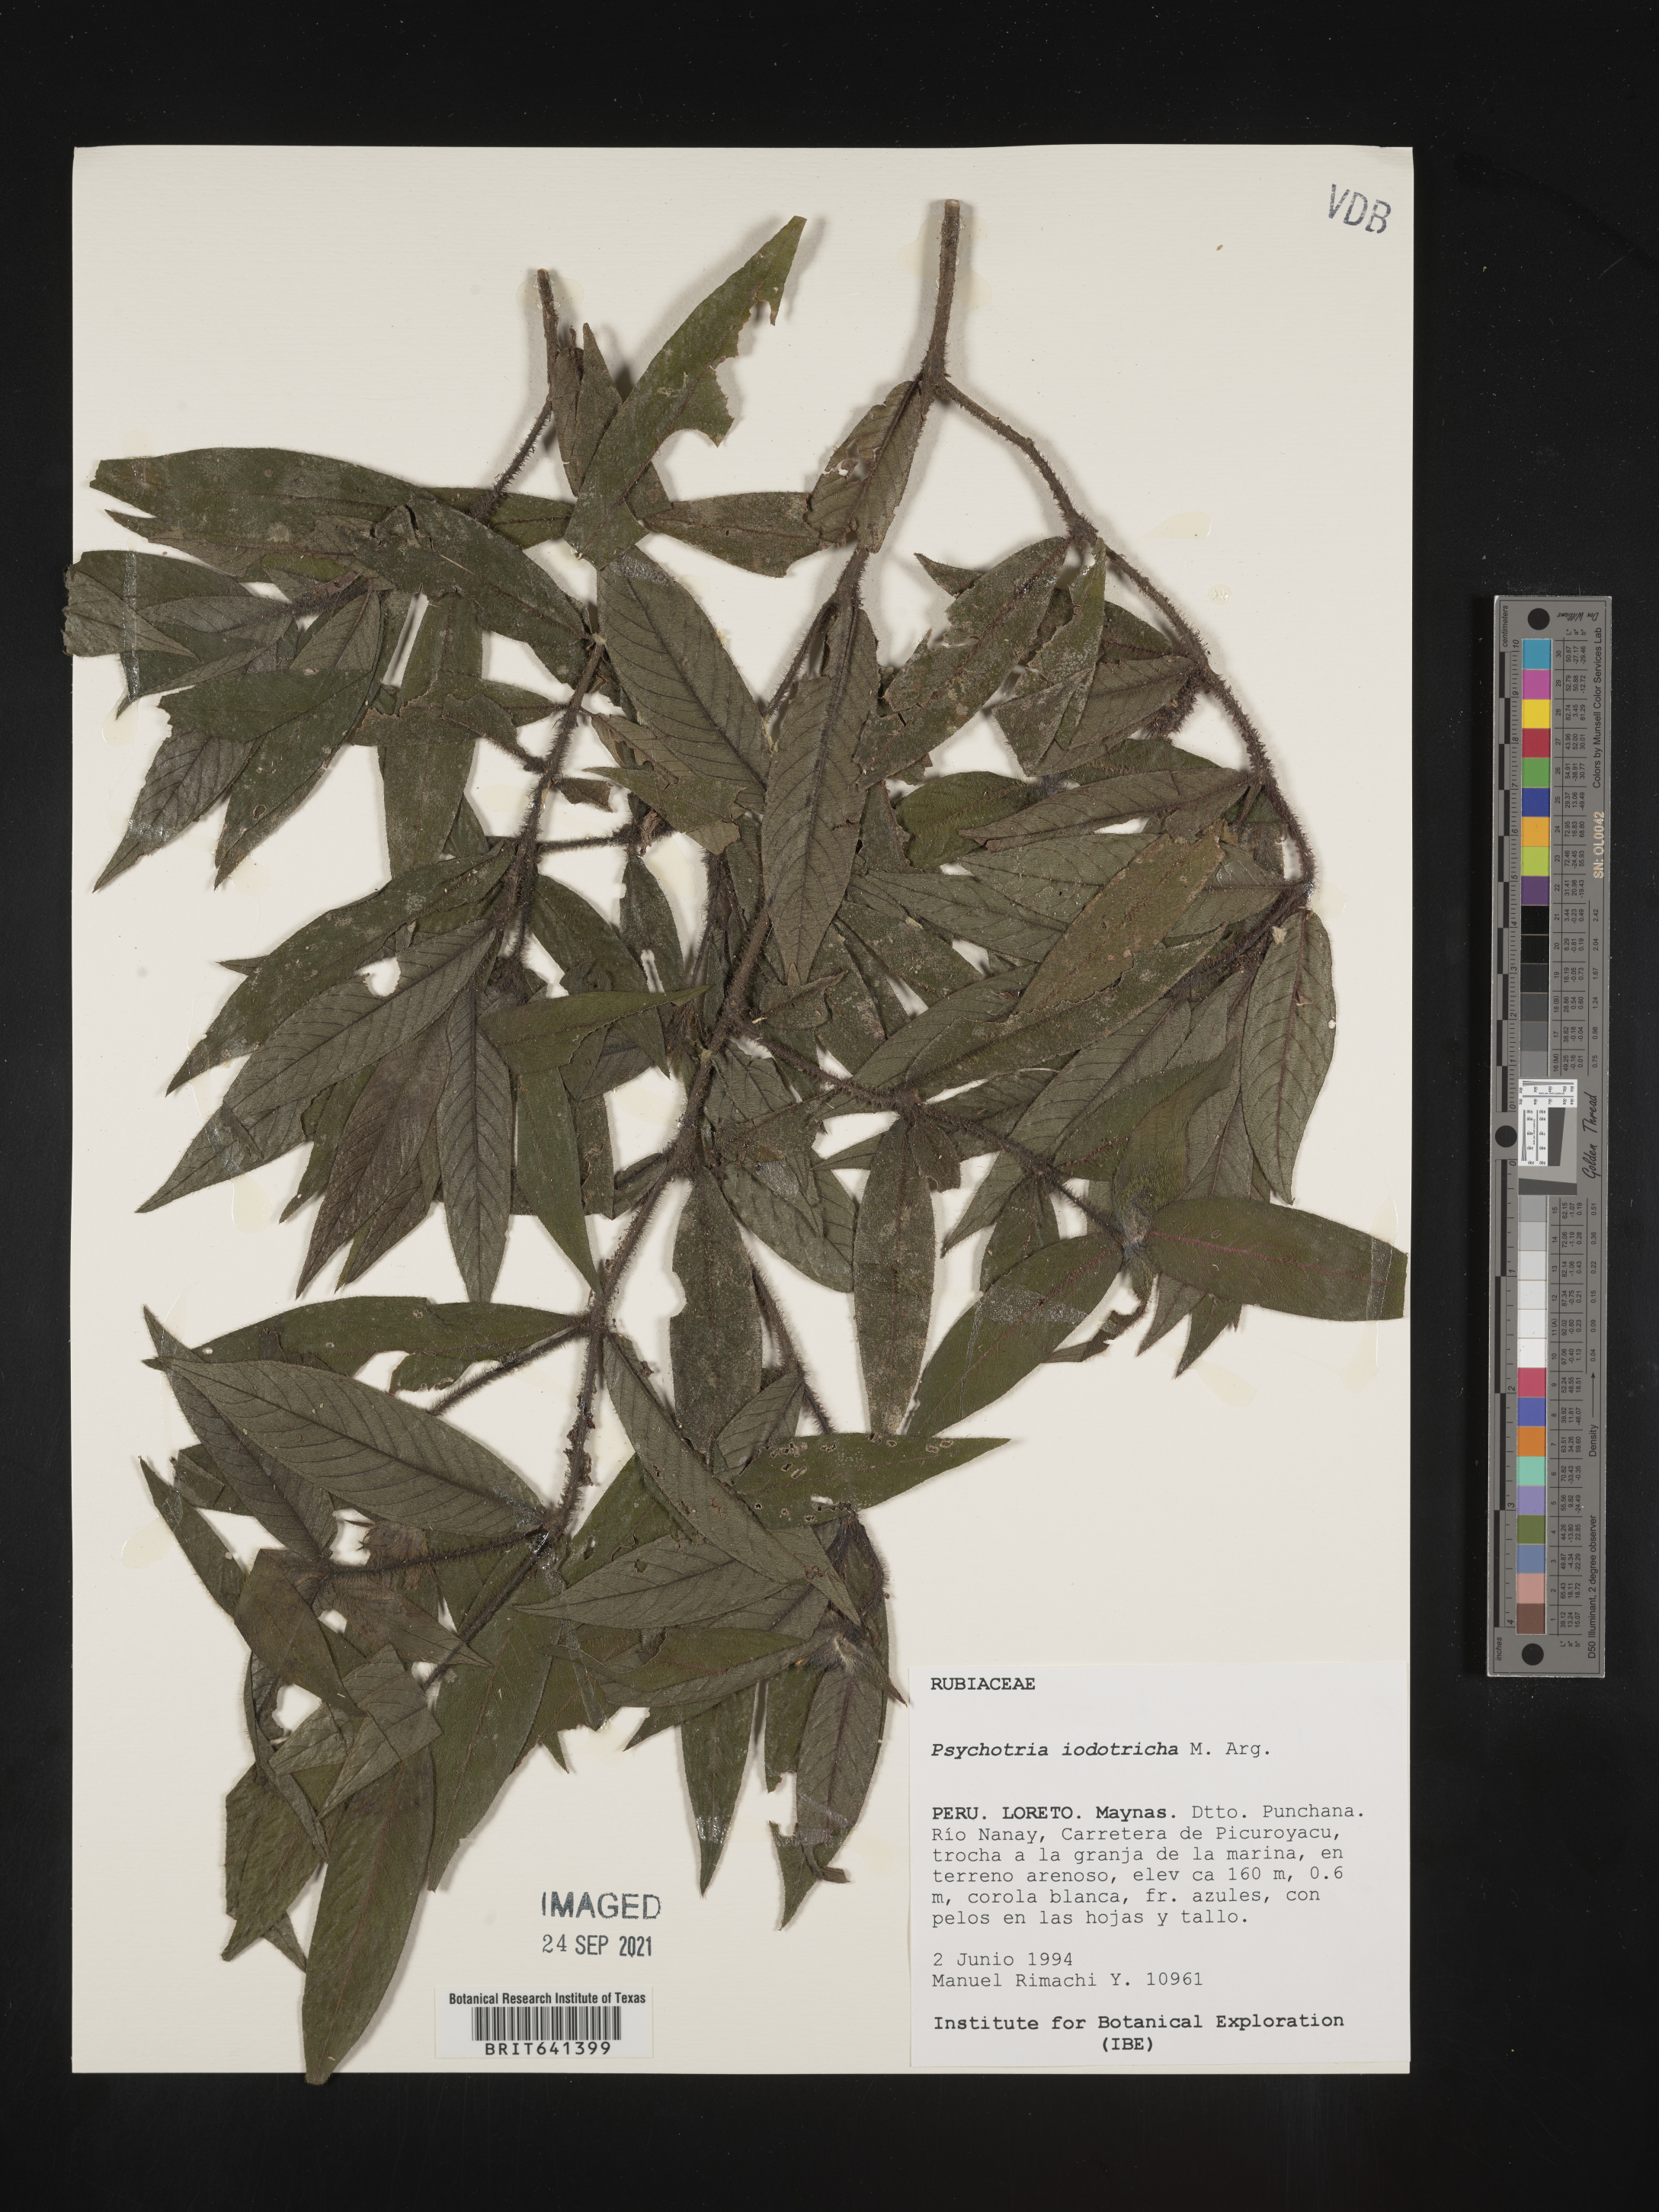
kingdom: Plantae
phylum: Tracheophyta
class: Magnoliopsida
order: Gentianales
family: Rubiaceae
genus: Psychotria
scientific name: Psychotria
